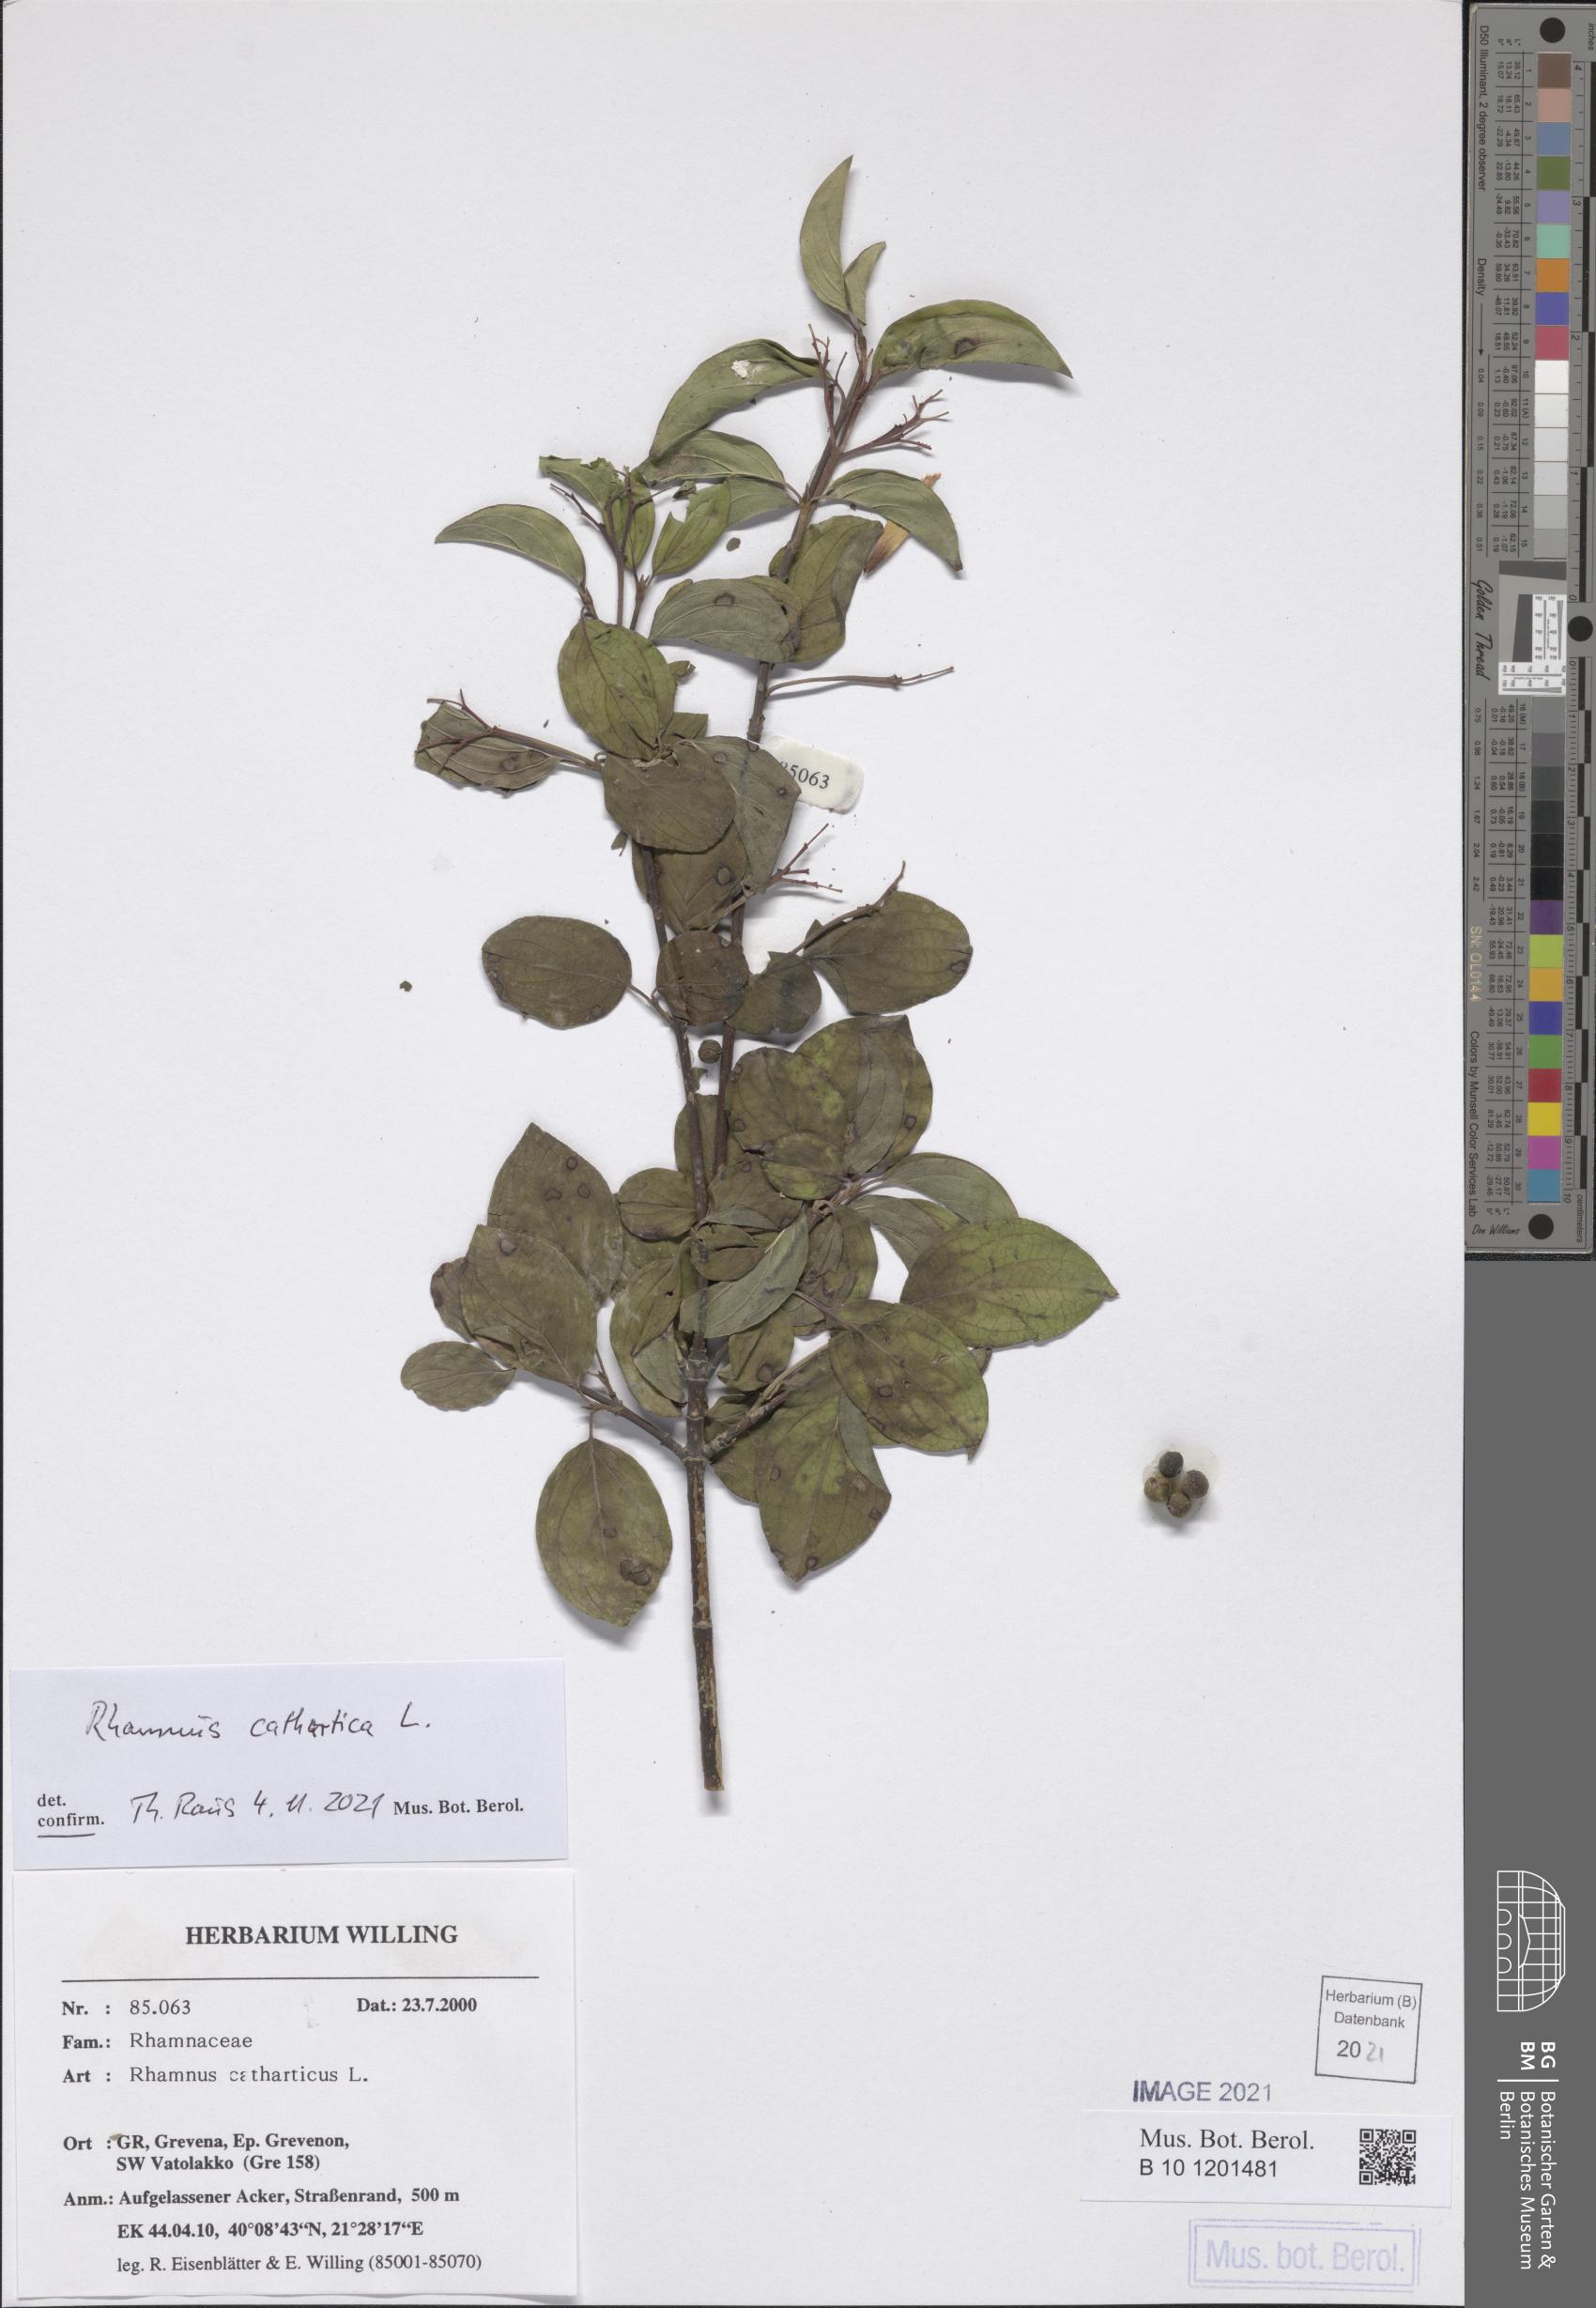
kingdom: Plantae
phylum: Tracheophyta
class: Magnoliopsida
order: Rosales
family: Rhamnaceae
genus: Rhamnus
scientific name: Rhamnus cathartica
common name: Common buckthorn
